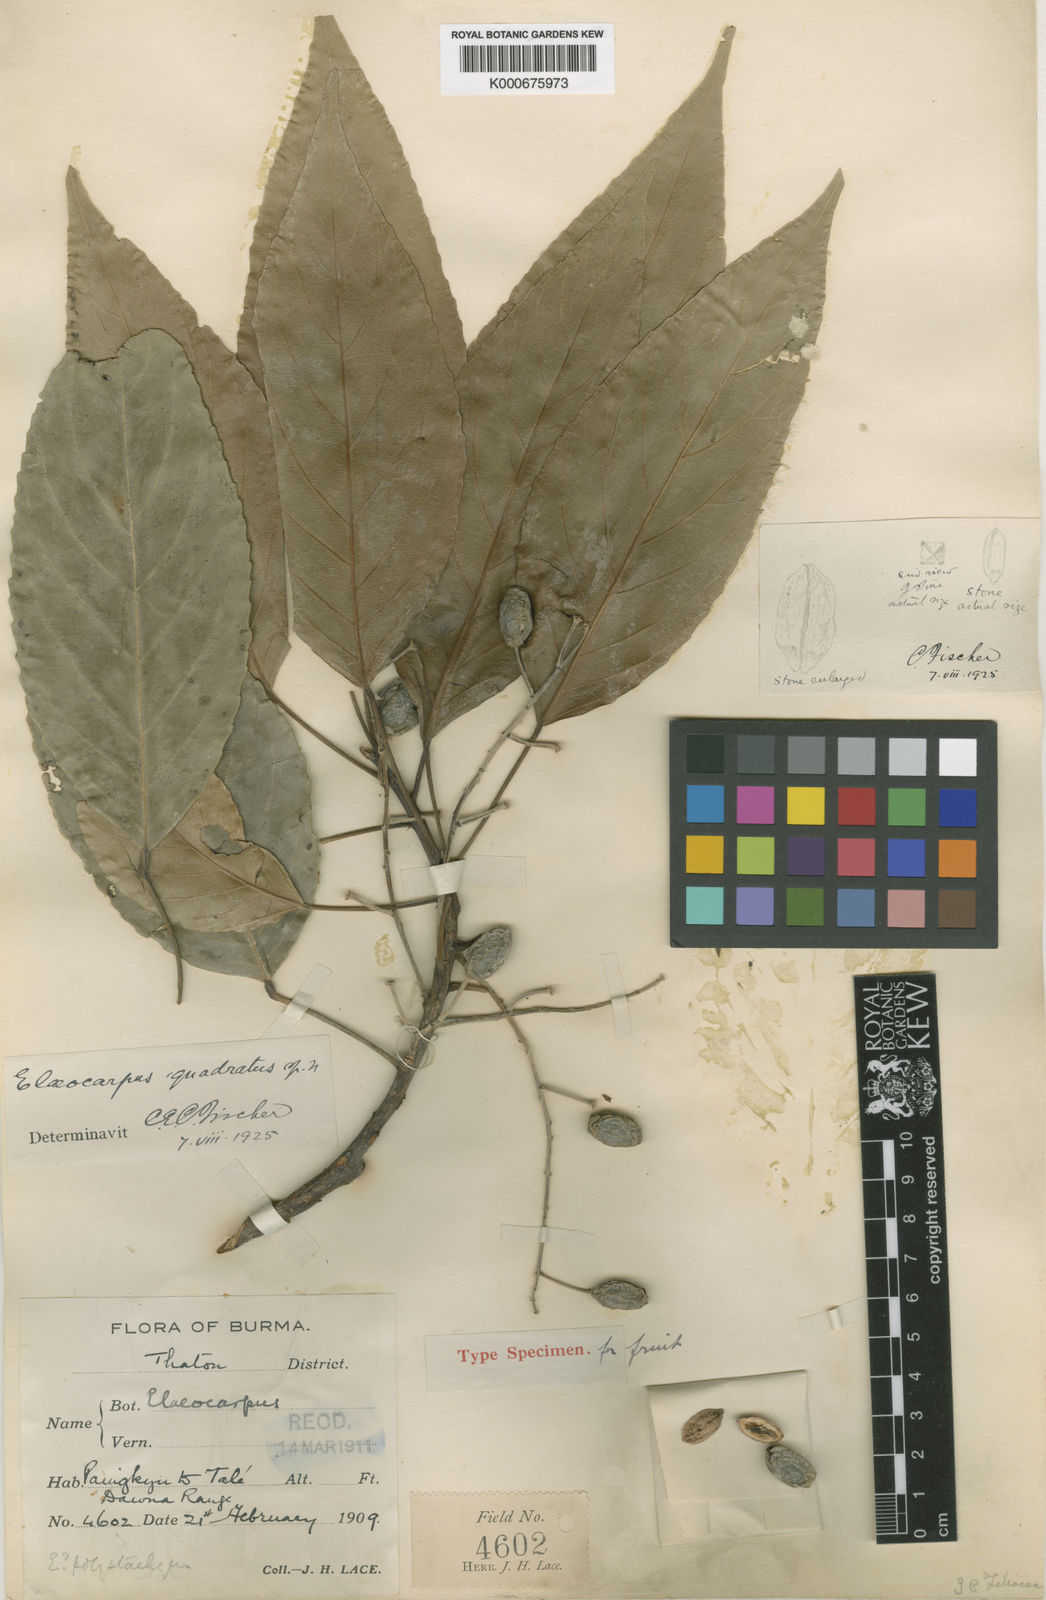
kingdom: Plantae
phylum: Tracheophyta
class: Magnoliopsida
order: Oxalidales
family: Elaeocarpaceae
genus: Elaeocarpus
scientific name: Elaeocarpus quadratus
